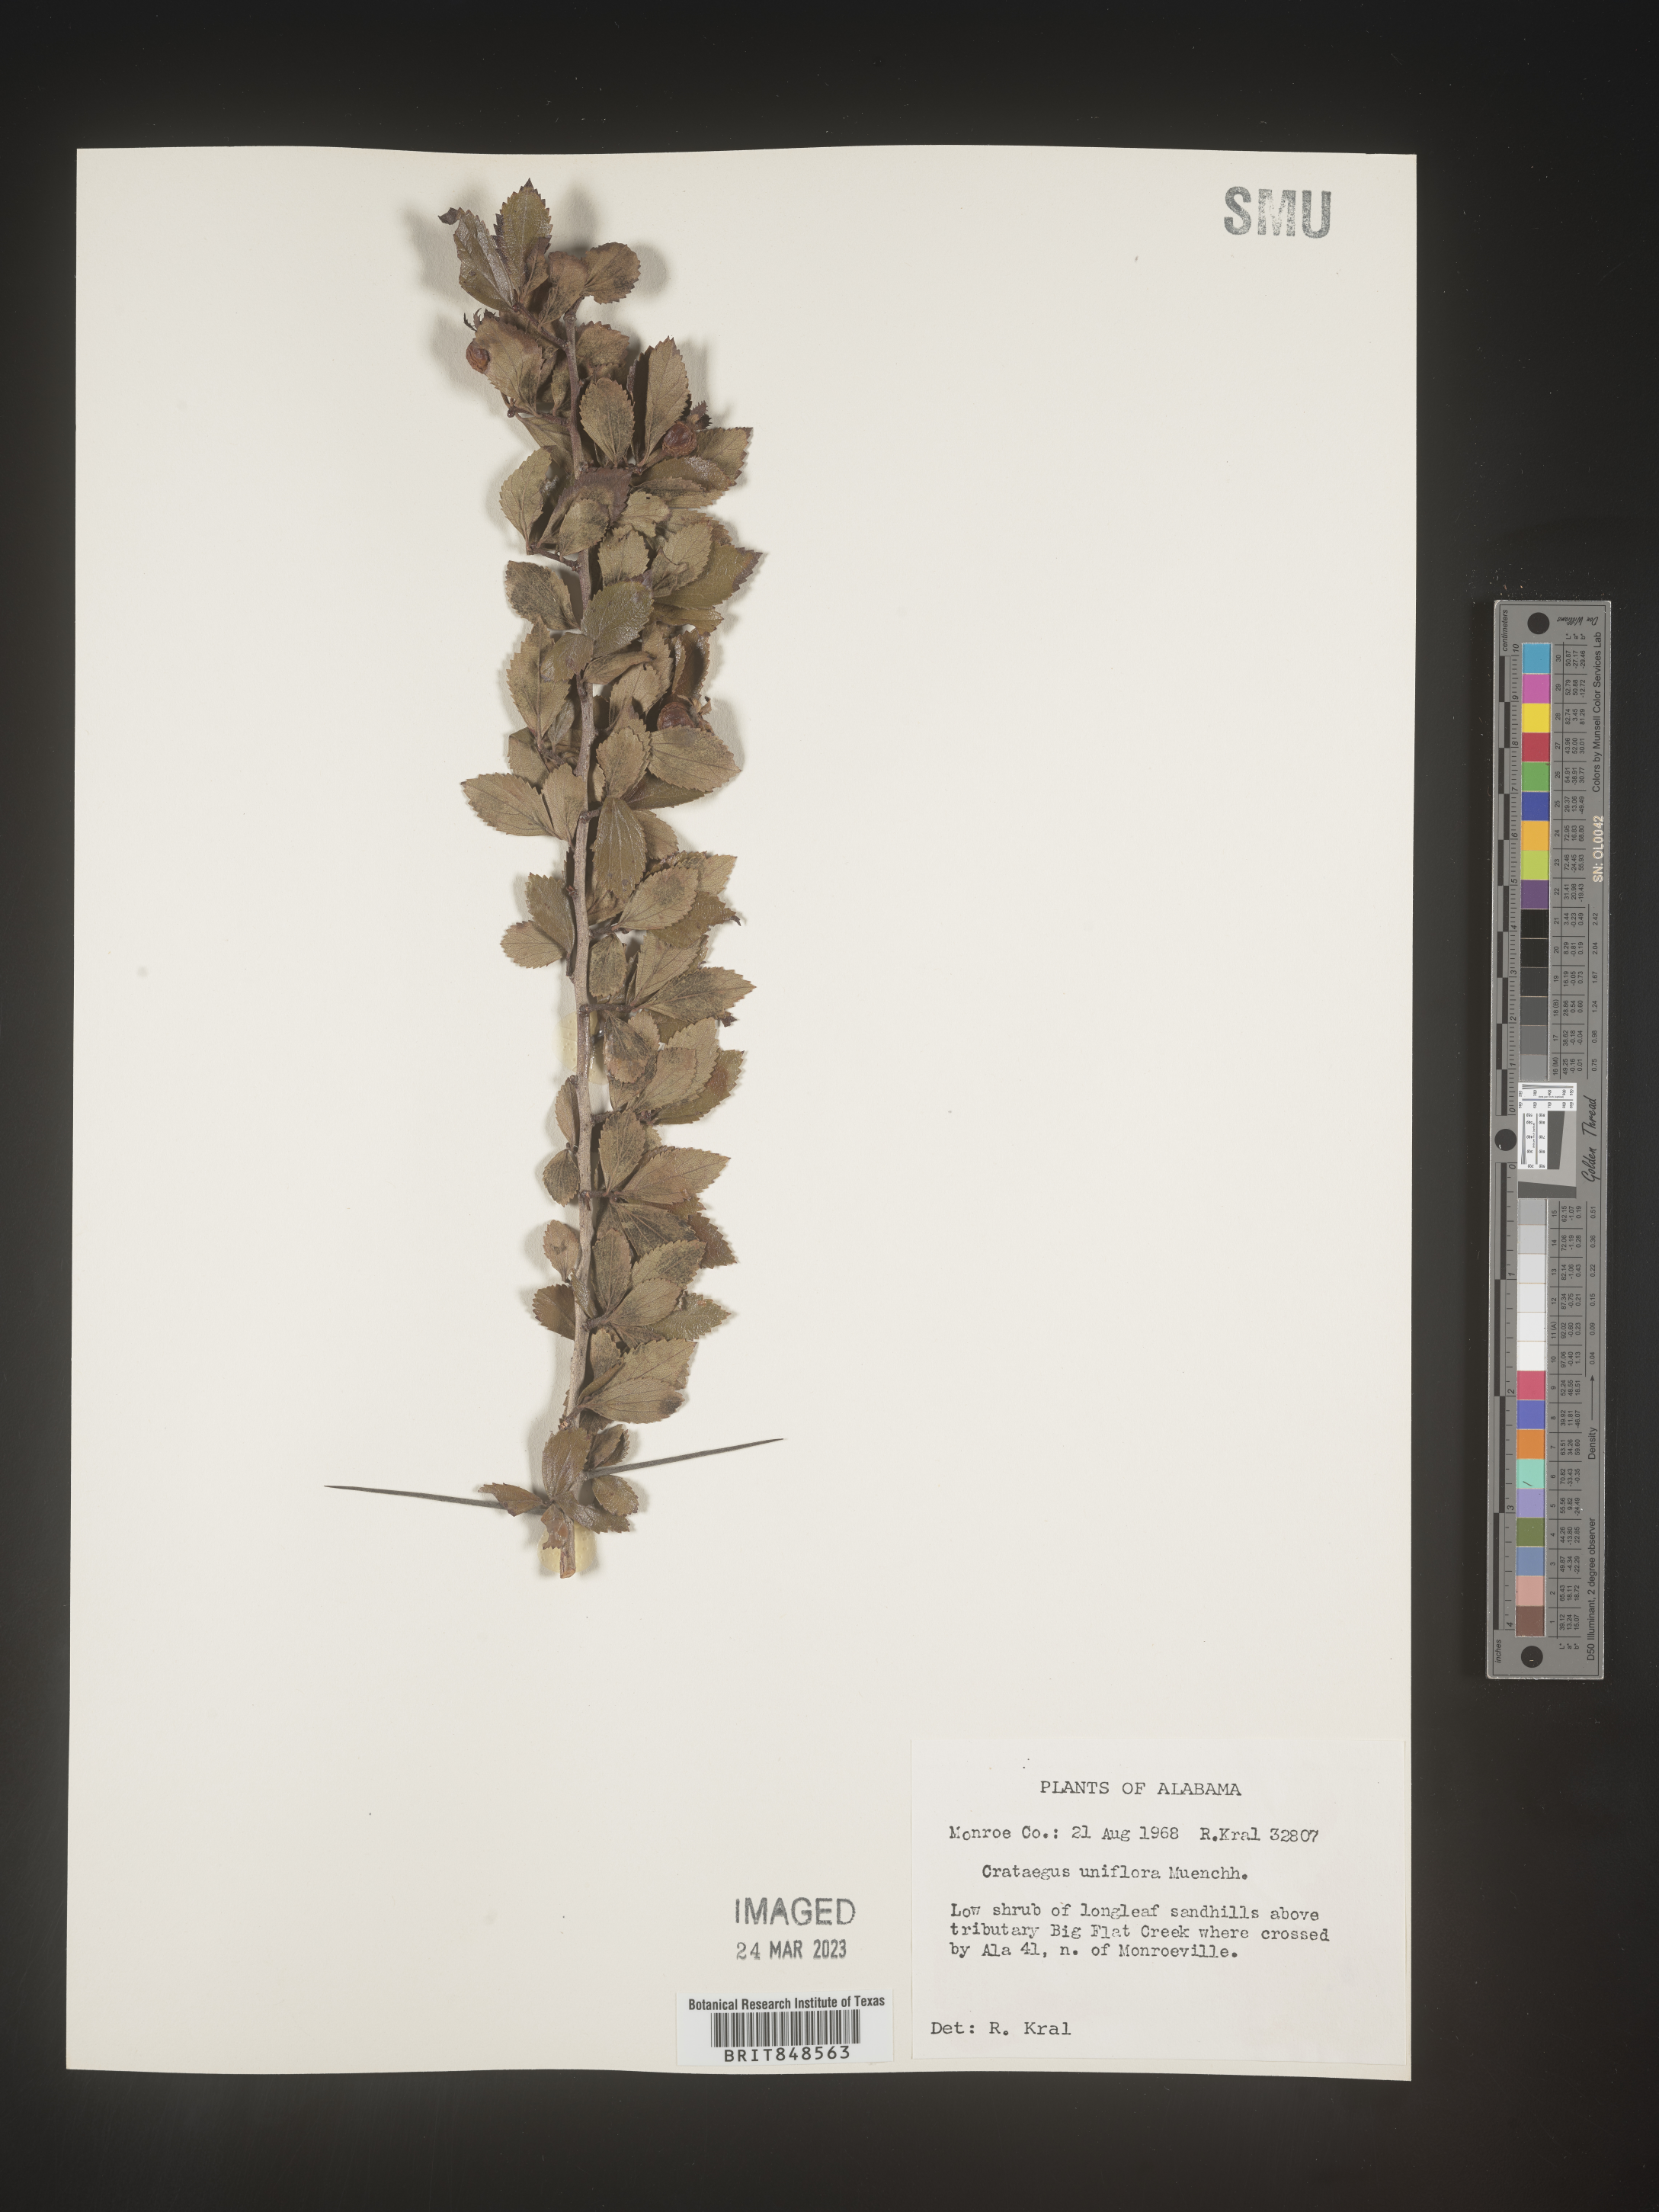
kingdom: Plantae
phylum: Tracheophyta
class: Magnoliopsida
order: Rosales
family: Rosaceae
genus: Crataegus
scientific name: Crataegus uniflora
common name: One-flower hawthorn
